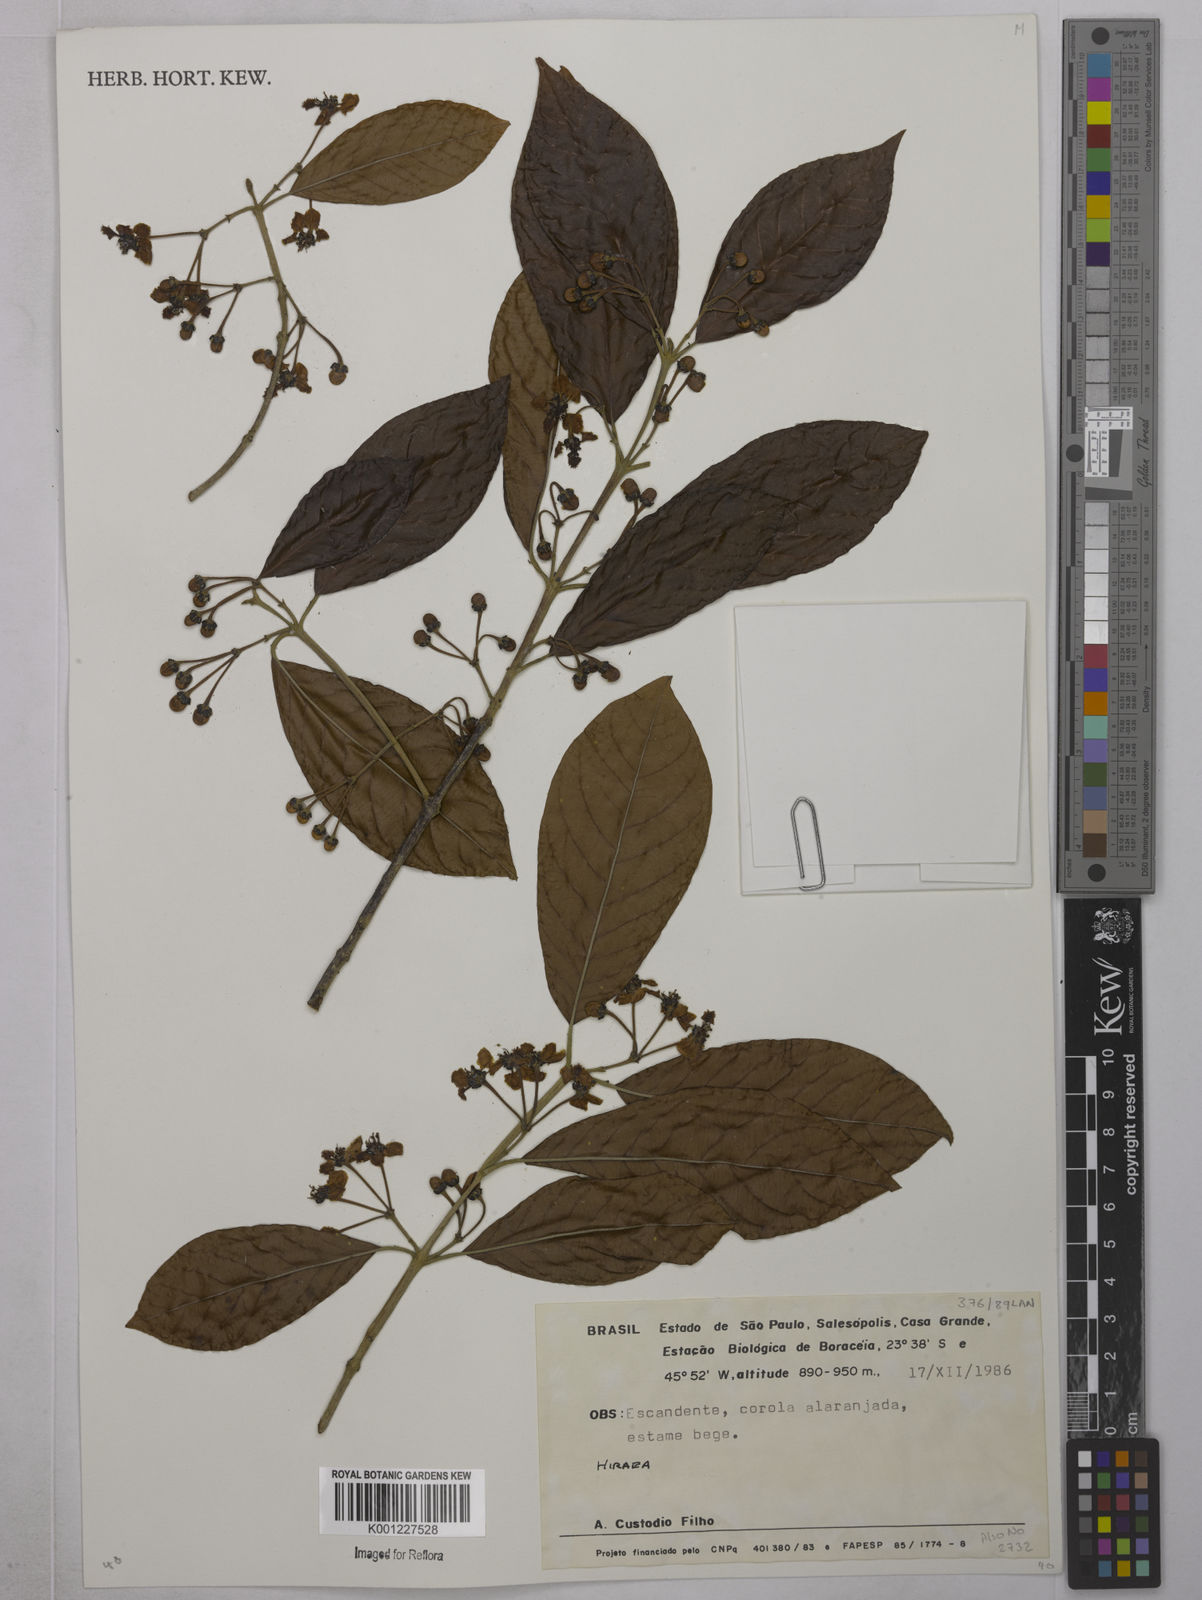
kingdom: Plantae
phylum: Tracheophyta
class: Magnoliopsida
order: Malpighiales
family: Malpighiaceae
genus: Hiraea
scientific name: Hiraea
